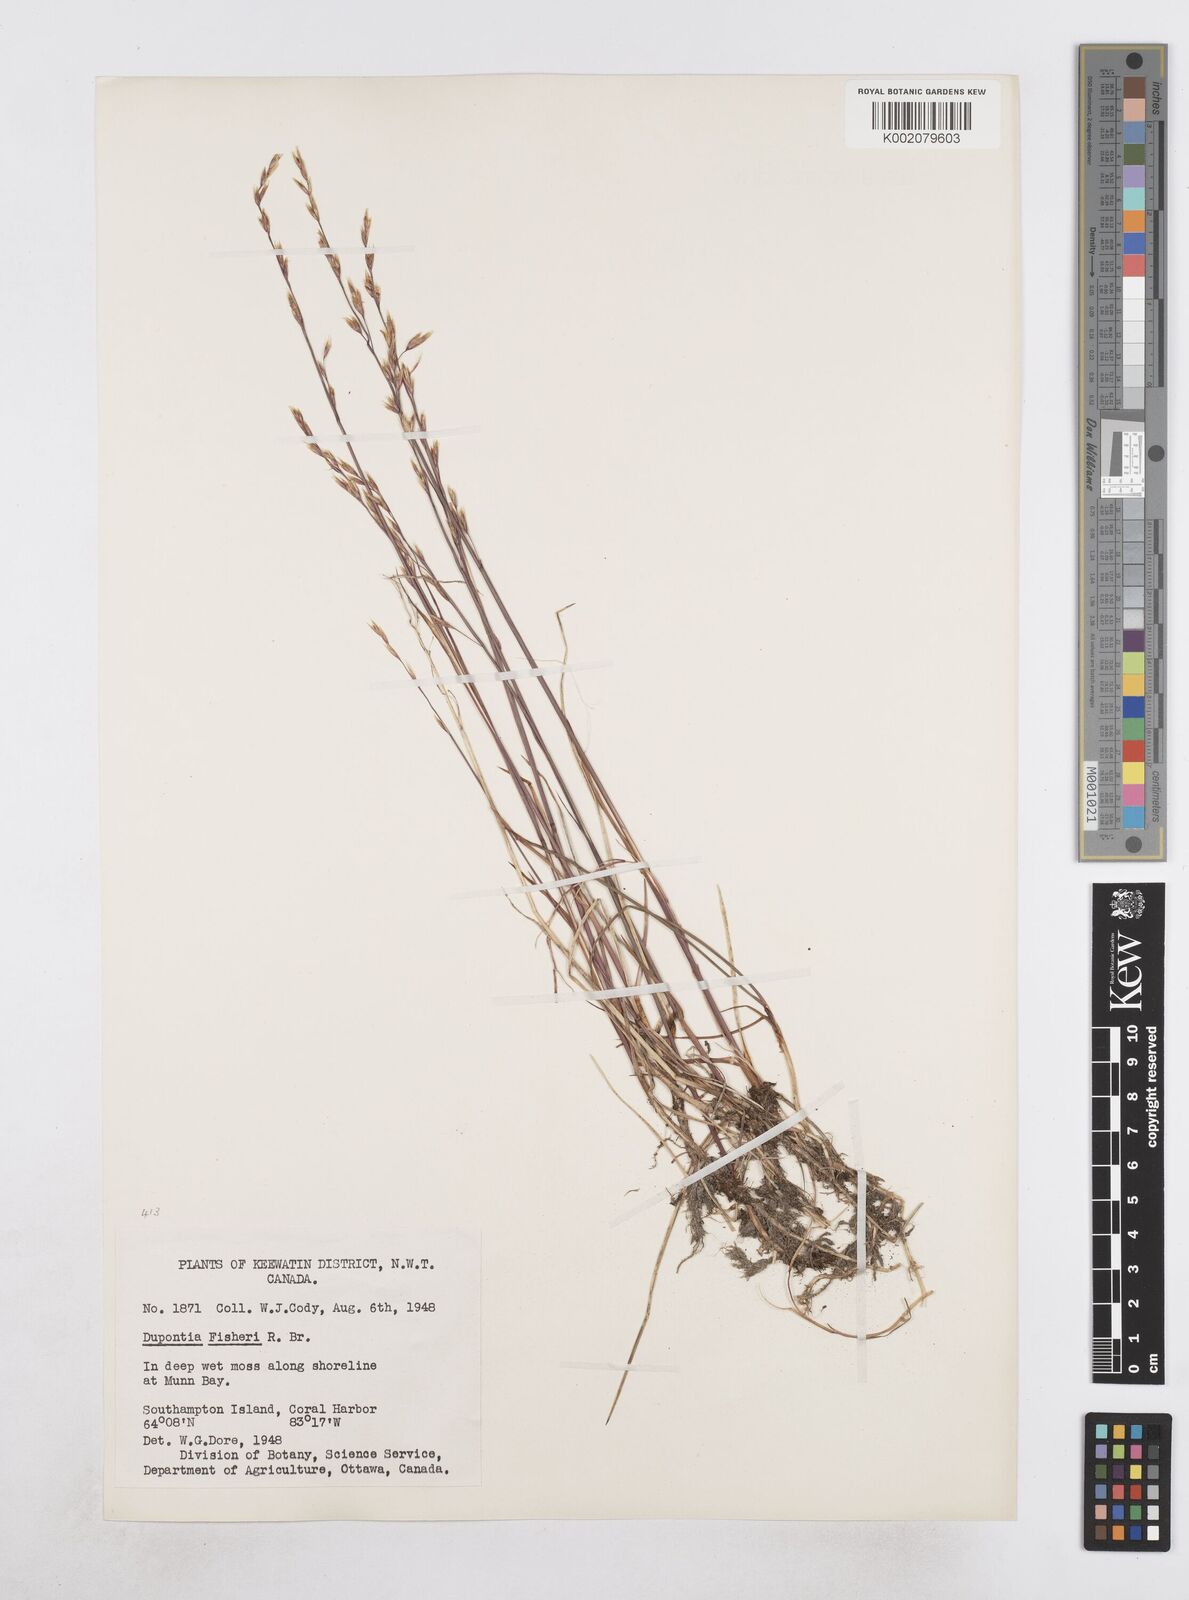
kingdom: Plantae
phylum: Tracheophyta
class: Liliopsida
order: Poales
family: Poaceae
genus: Dupontia
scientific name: Dupontia fisheri
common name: Tundra grass
